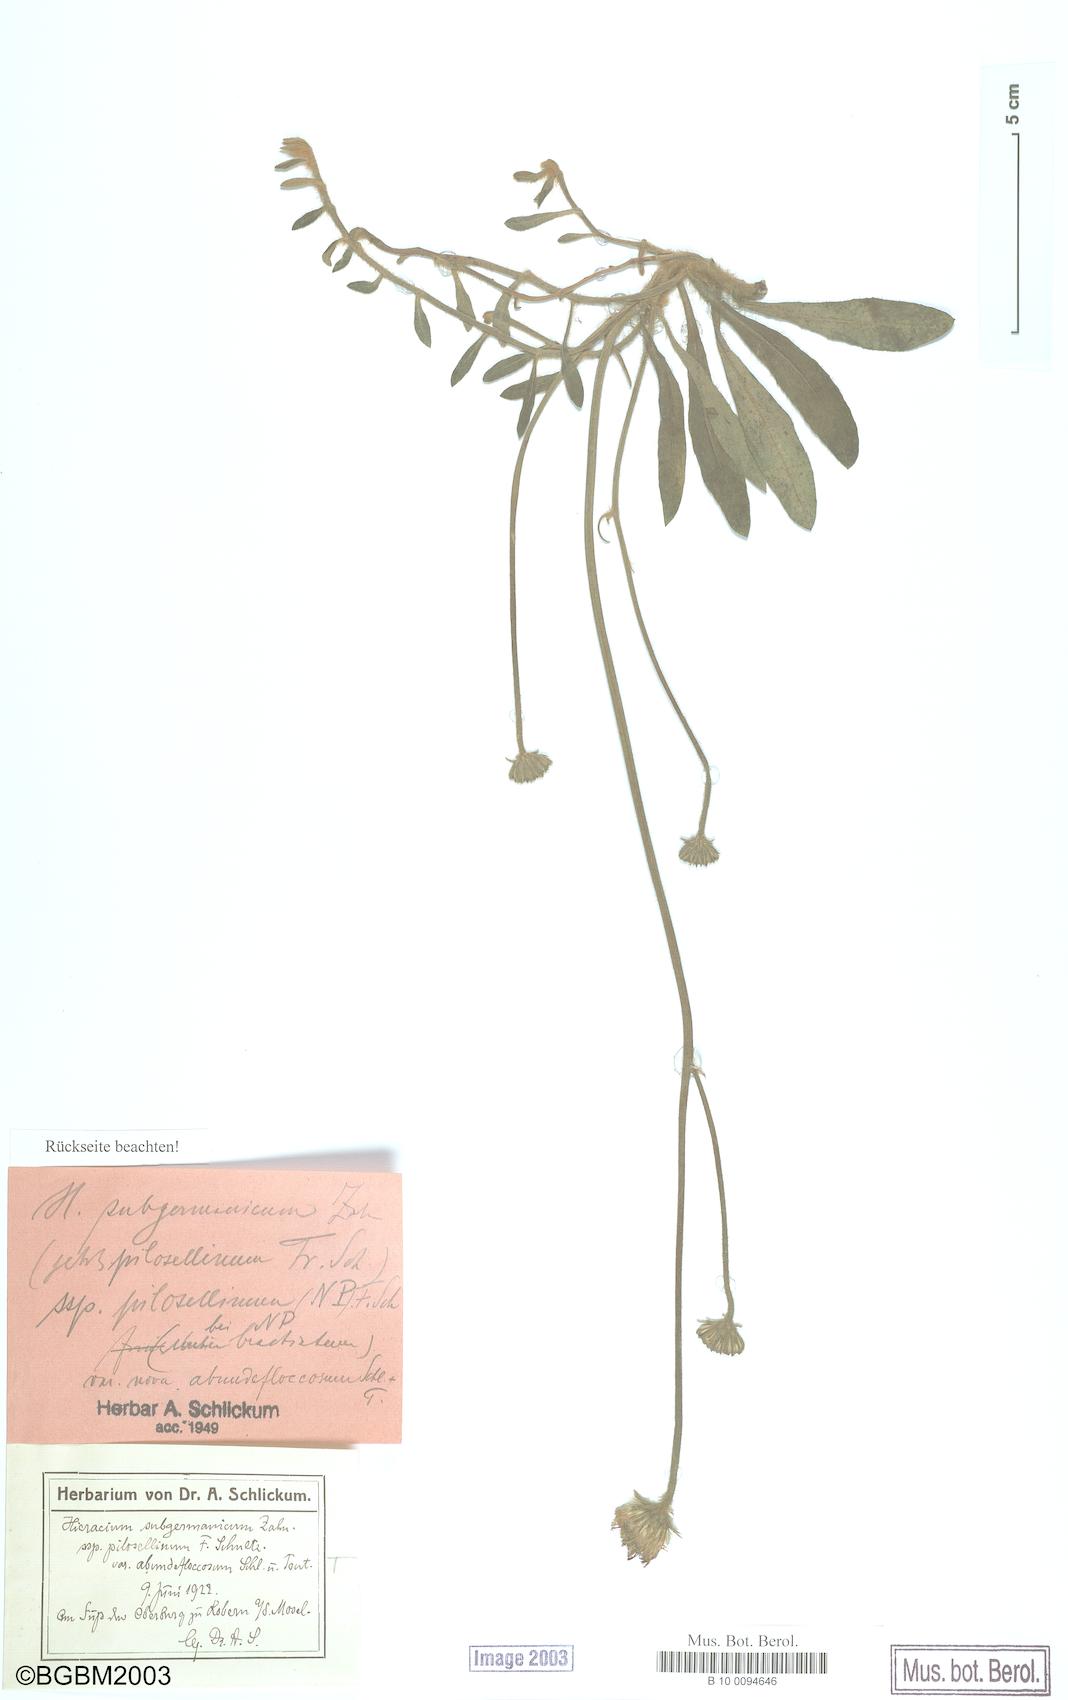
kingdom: Plantae
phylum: Tracheophyta
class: Magnoliopsida
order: Asterales
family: Asteraceae
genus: Hieracium
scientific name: Hieracium subgermanicum
